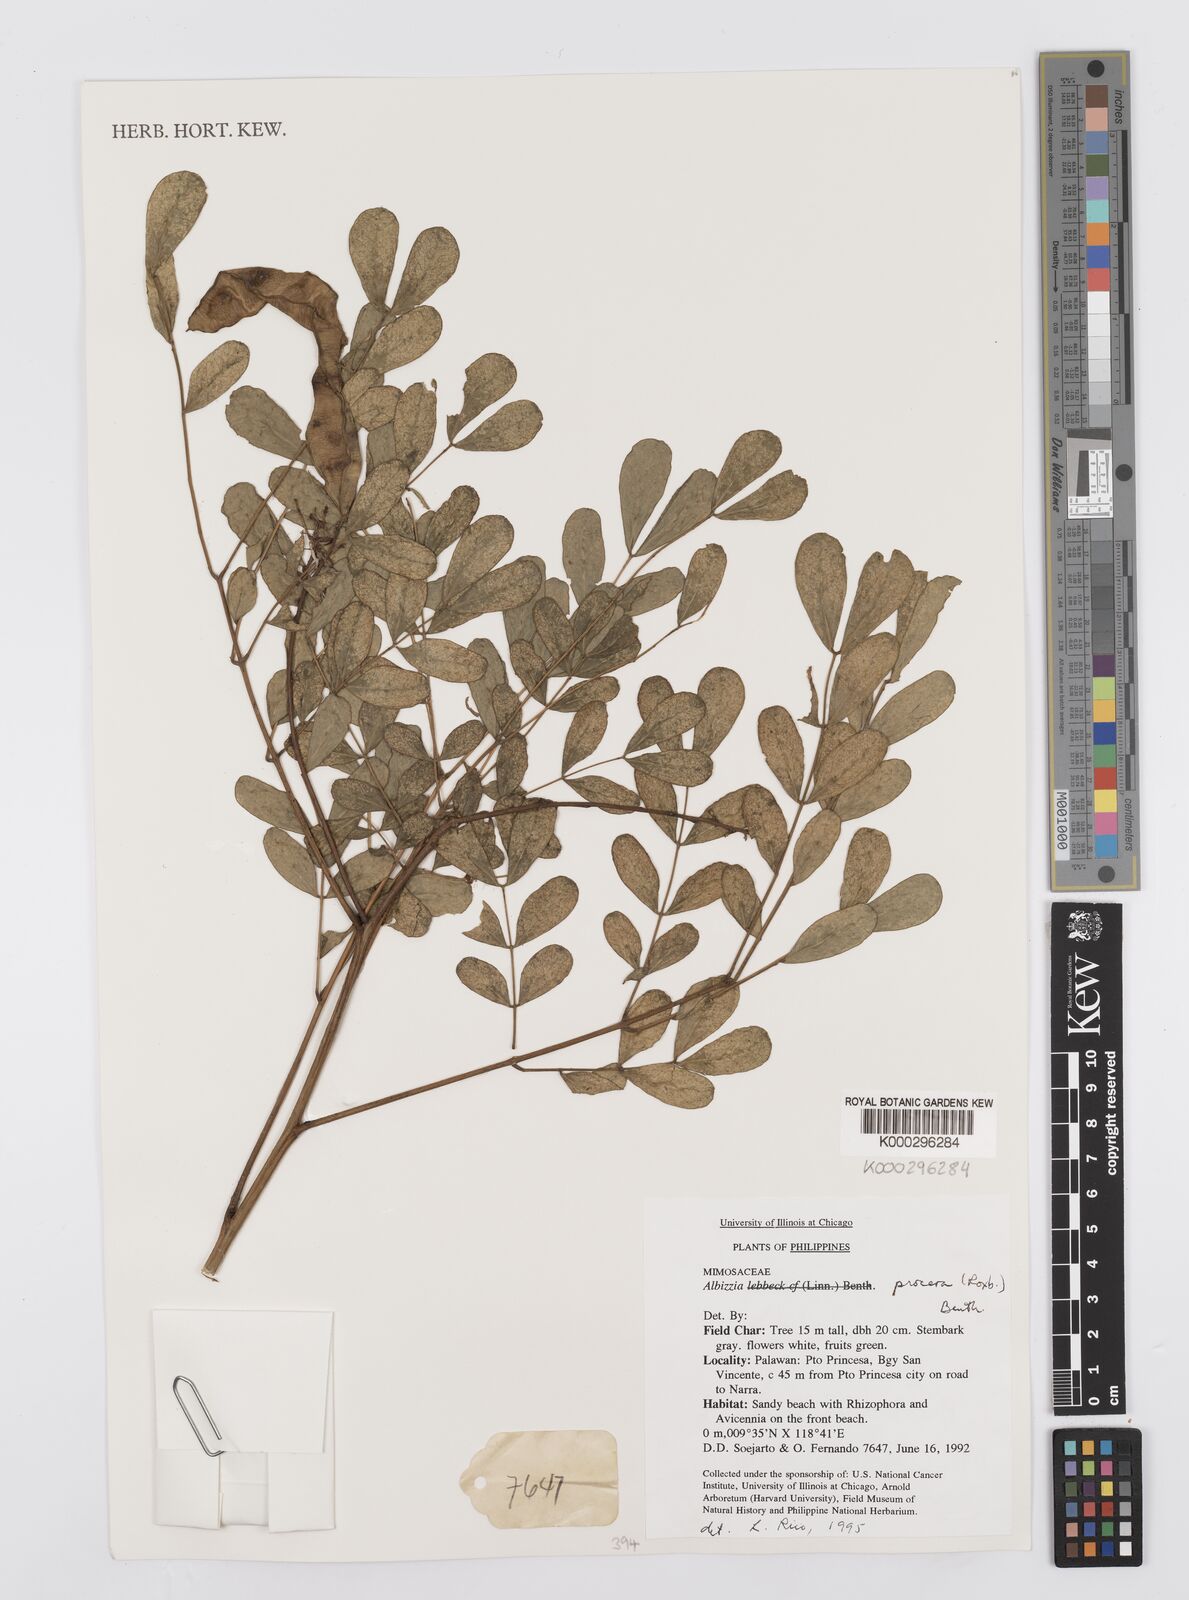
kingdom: Plantae
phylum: Tracheophyta
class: Magnoliopsida
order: Fabales
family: Fabaceae
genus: Albizia
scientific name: Albizia procera
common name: Tall albizia
